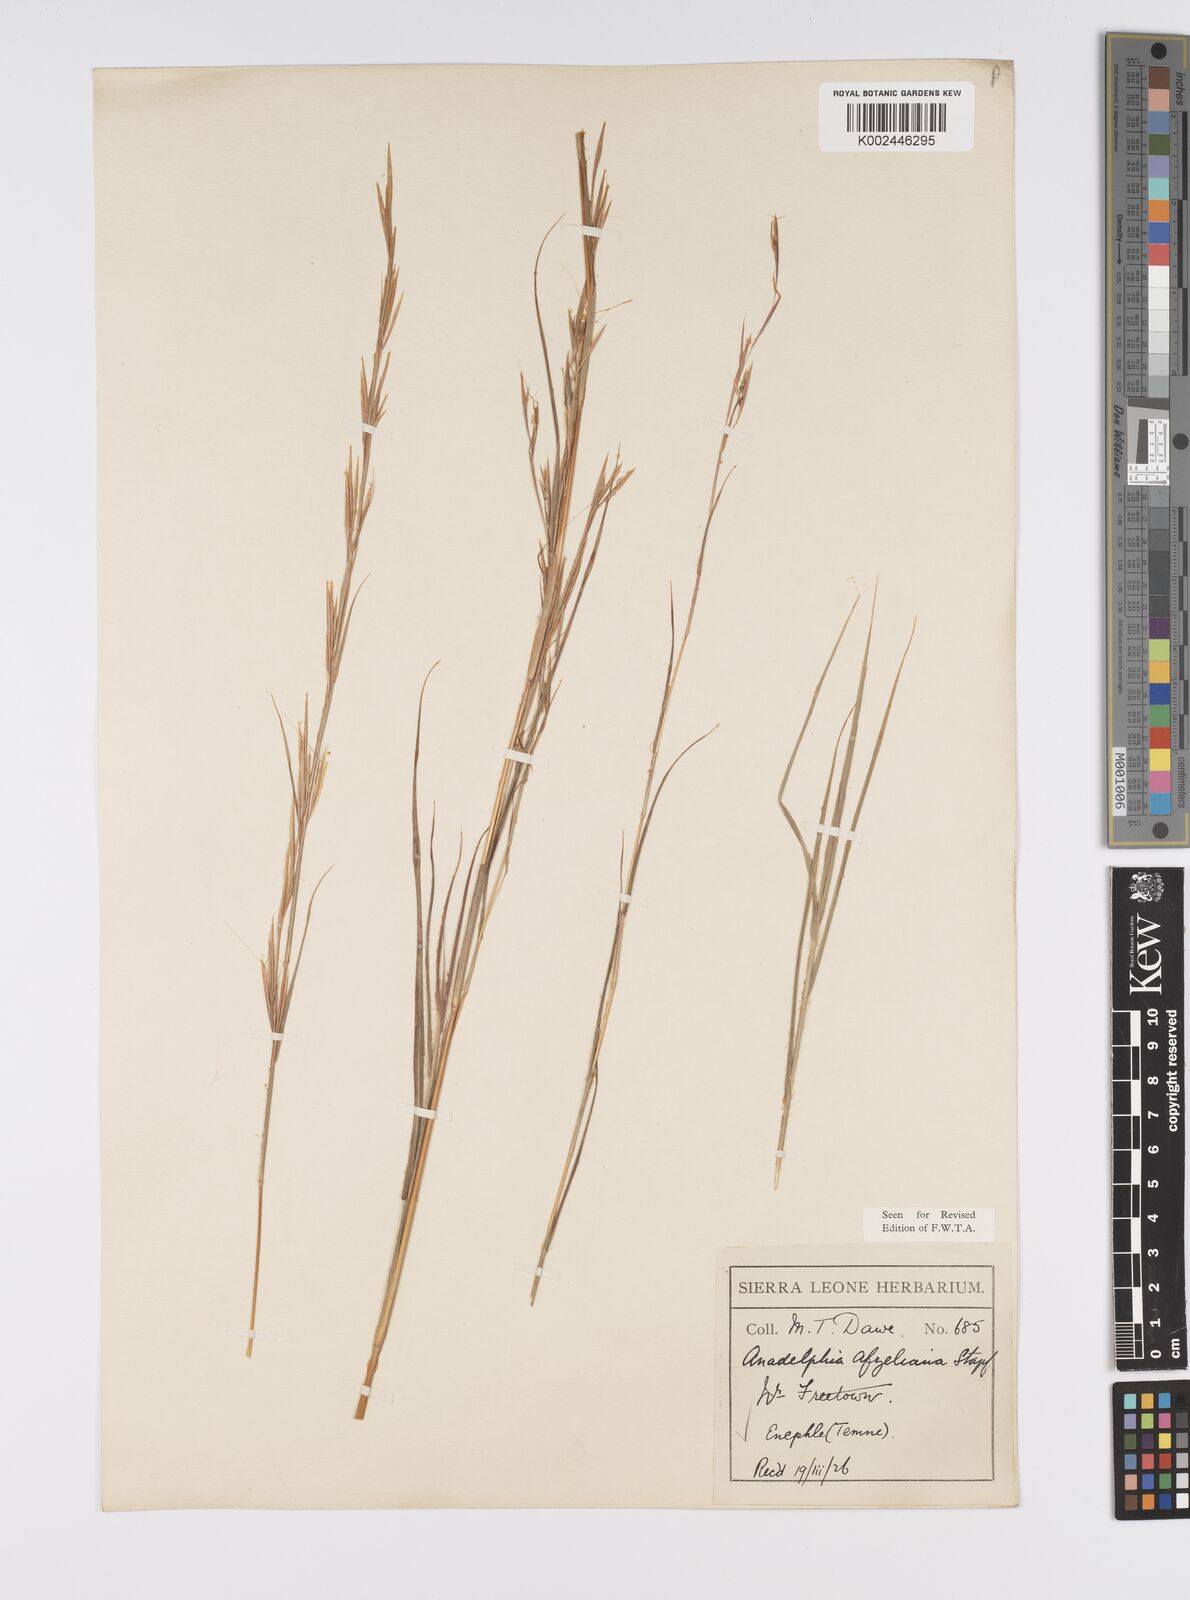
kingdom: Plantae
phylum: Tracheophyta
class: Liliopsida
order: Poales
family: Poaceae
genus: Anadelphia
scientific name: Anadelphia afzeliana
